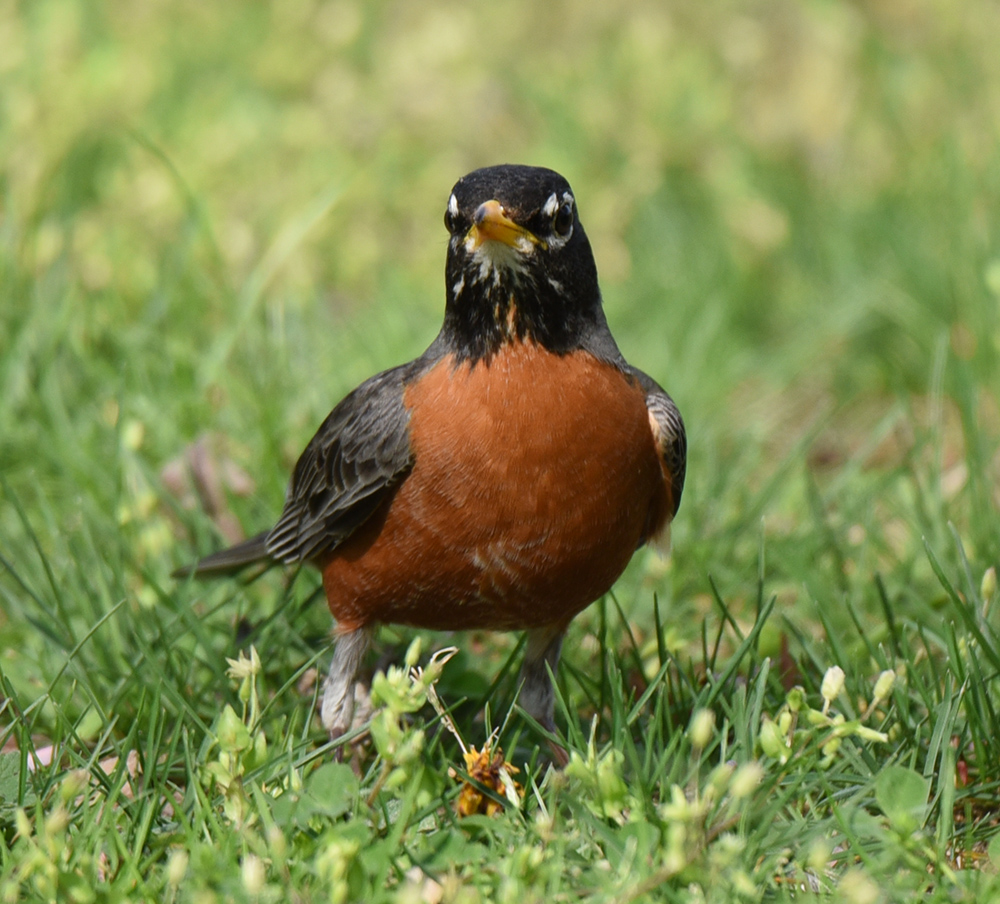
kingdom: Animalia
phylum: Chordata
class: Aves
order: Passeriformes
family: Turdidae
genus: Turdus
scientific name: Turdus migratorius
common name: American robin
